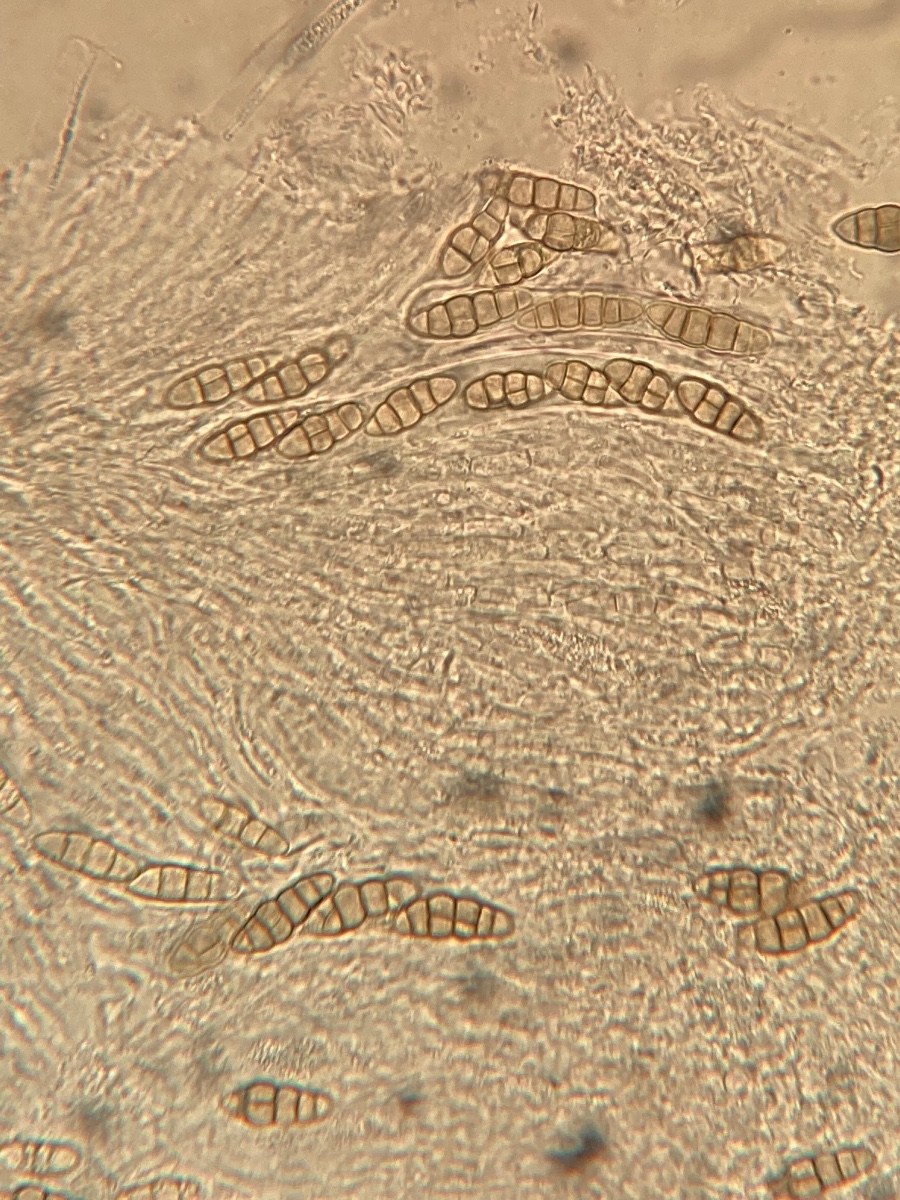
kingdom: Fungi
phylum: Ascomycota
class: Dothideomycetes
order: Pleosporales
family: Pleosporaceae
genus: Pleospora
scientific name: Pleospora vitalbae
